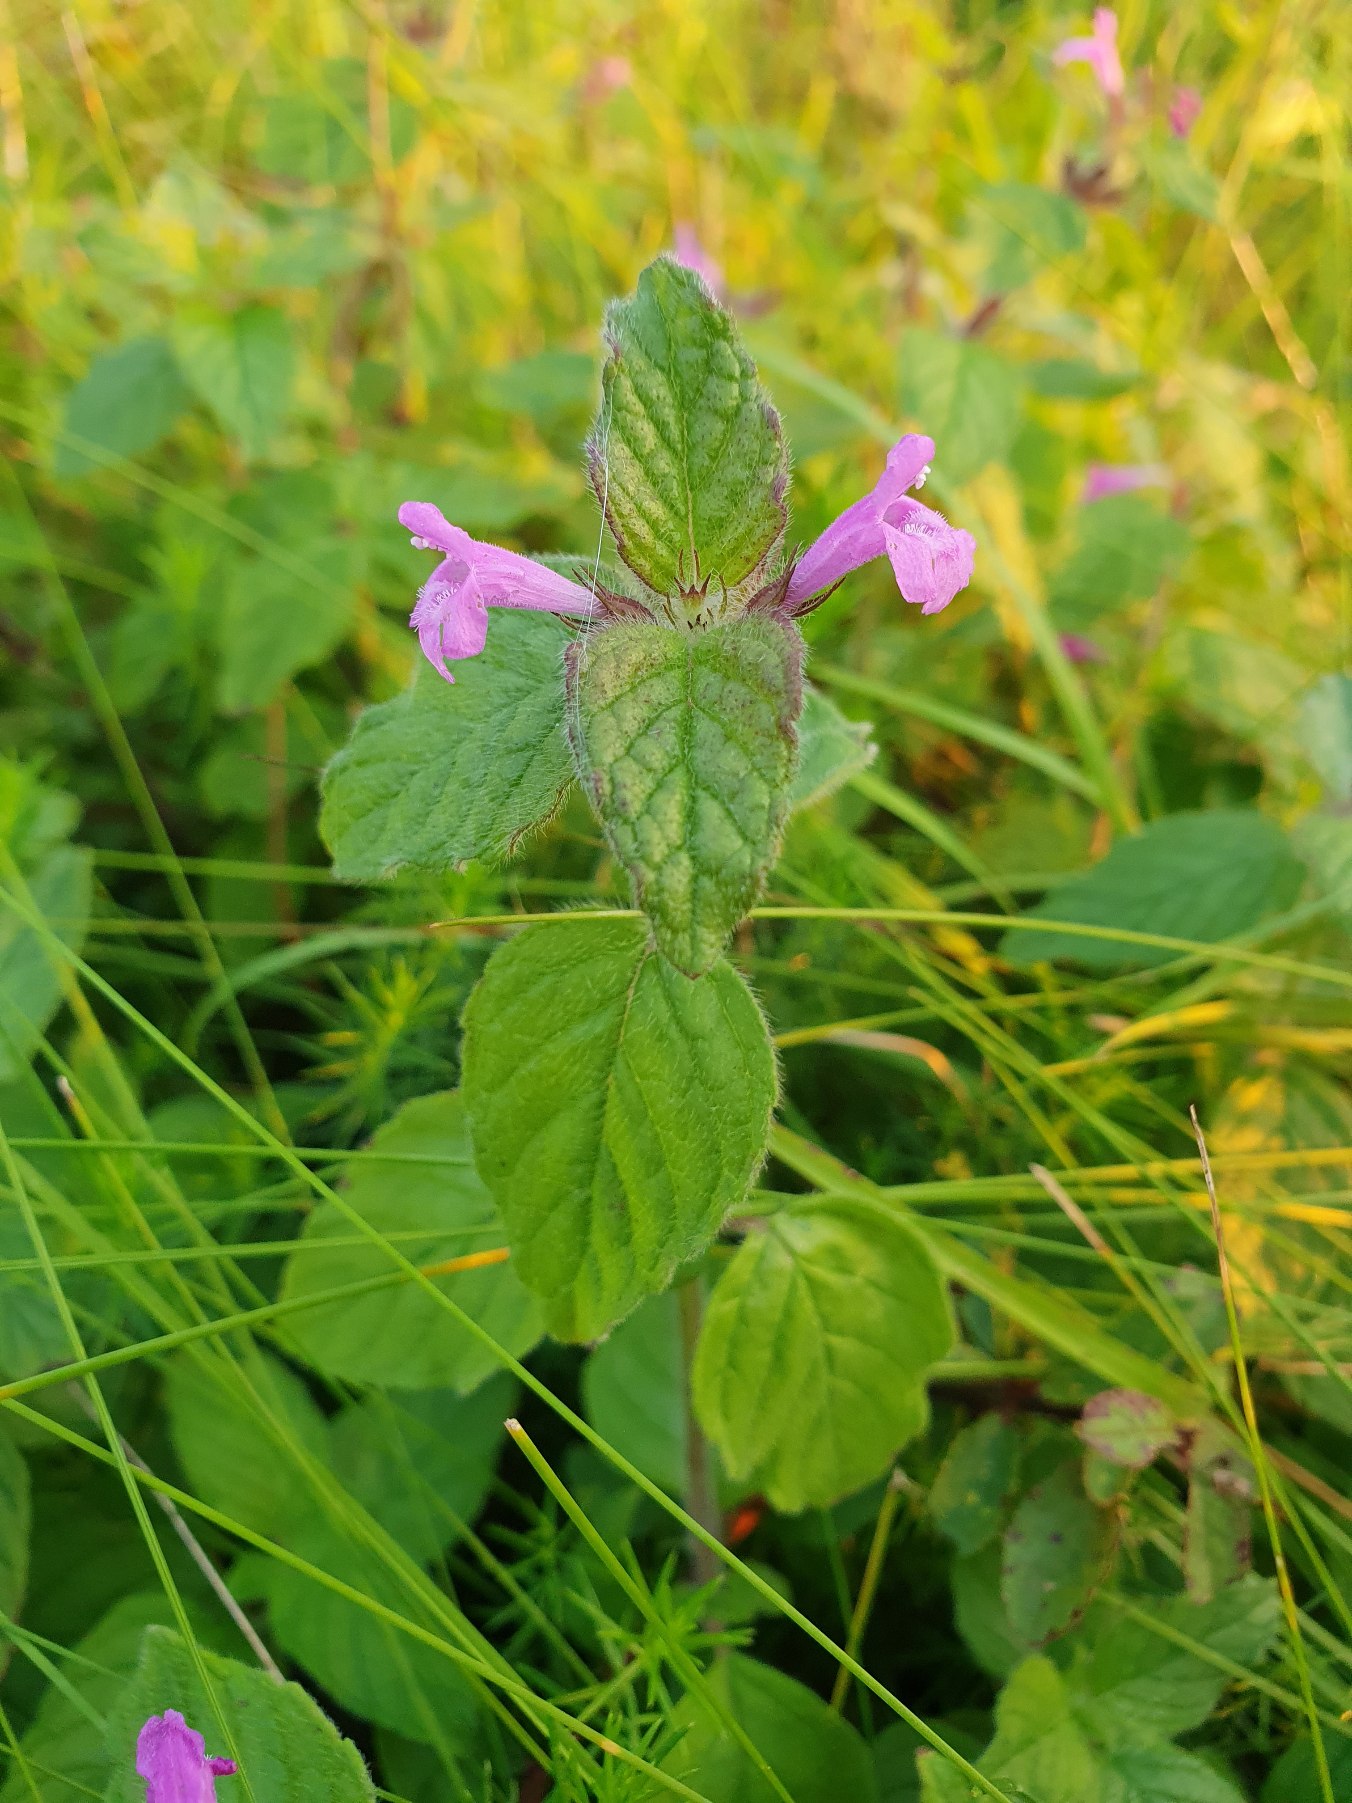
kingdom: Plantae
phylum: Tracheophyta
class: Magnoliopsida
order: Lamiales
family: Lamiaceae
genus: Clinopodium
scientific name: Clinopodium vulgare
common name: Kransbørste
